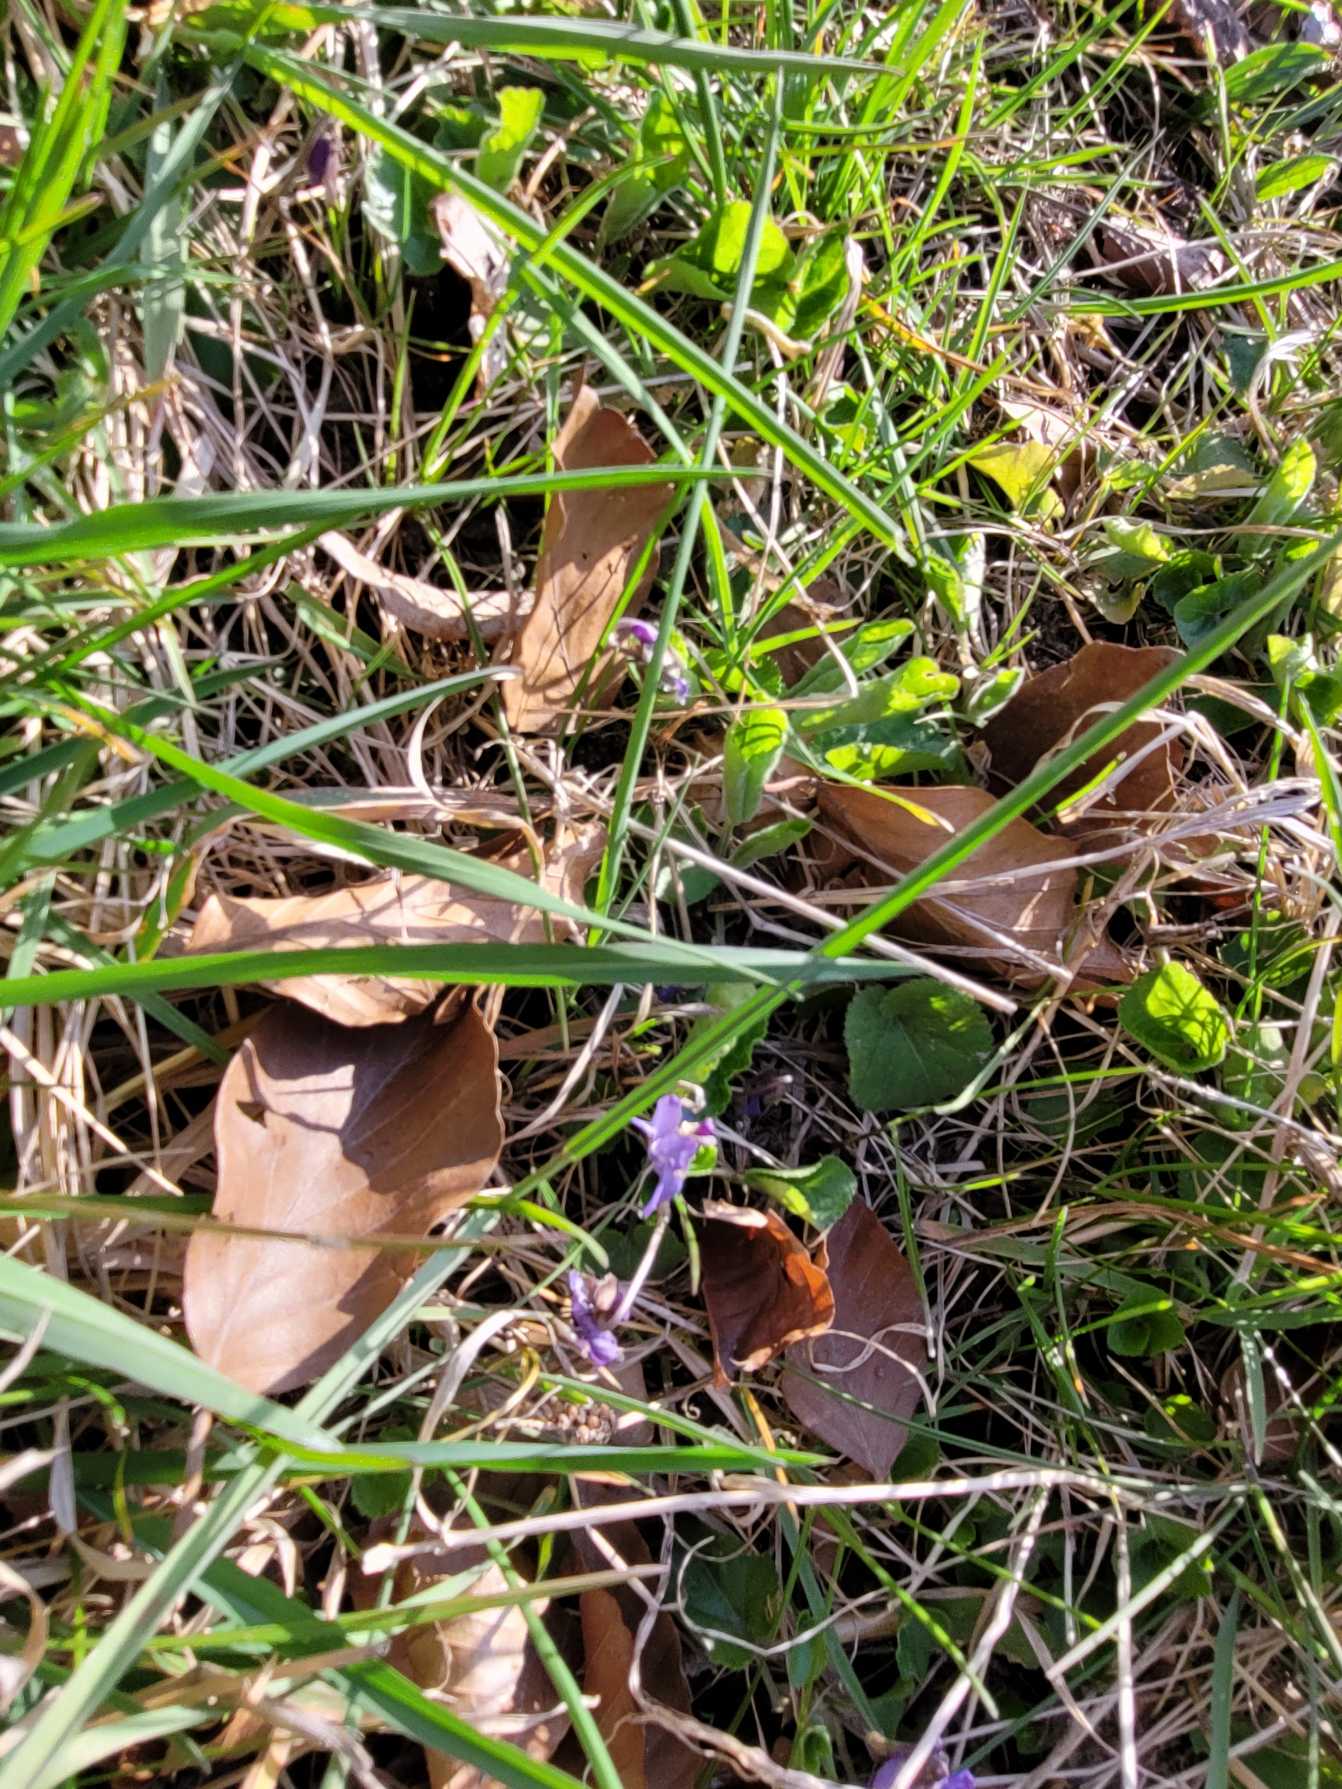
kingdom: Plantae
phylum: Tracheophyta
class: Magnoliopsida
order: Malpighiales
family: Violaceae
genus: Viola
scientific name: Viola
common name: Violslægten
